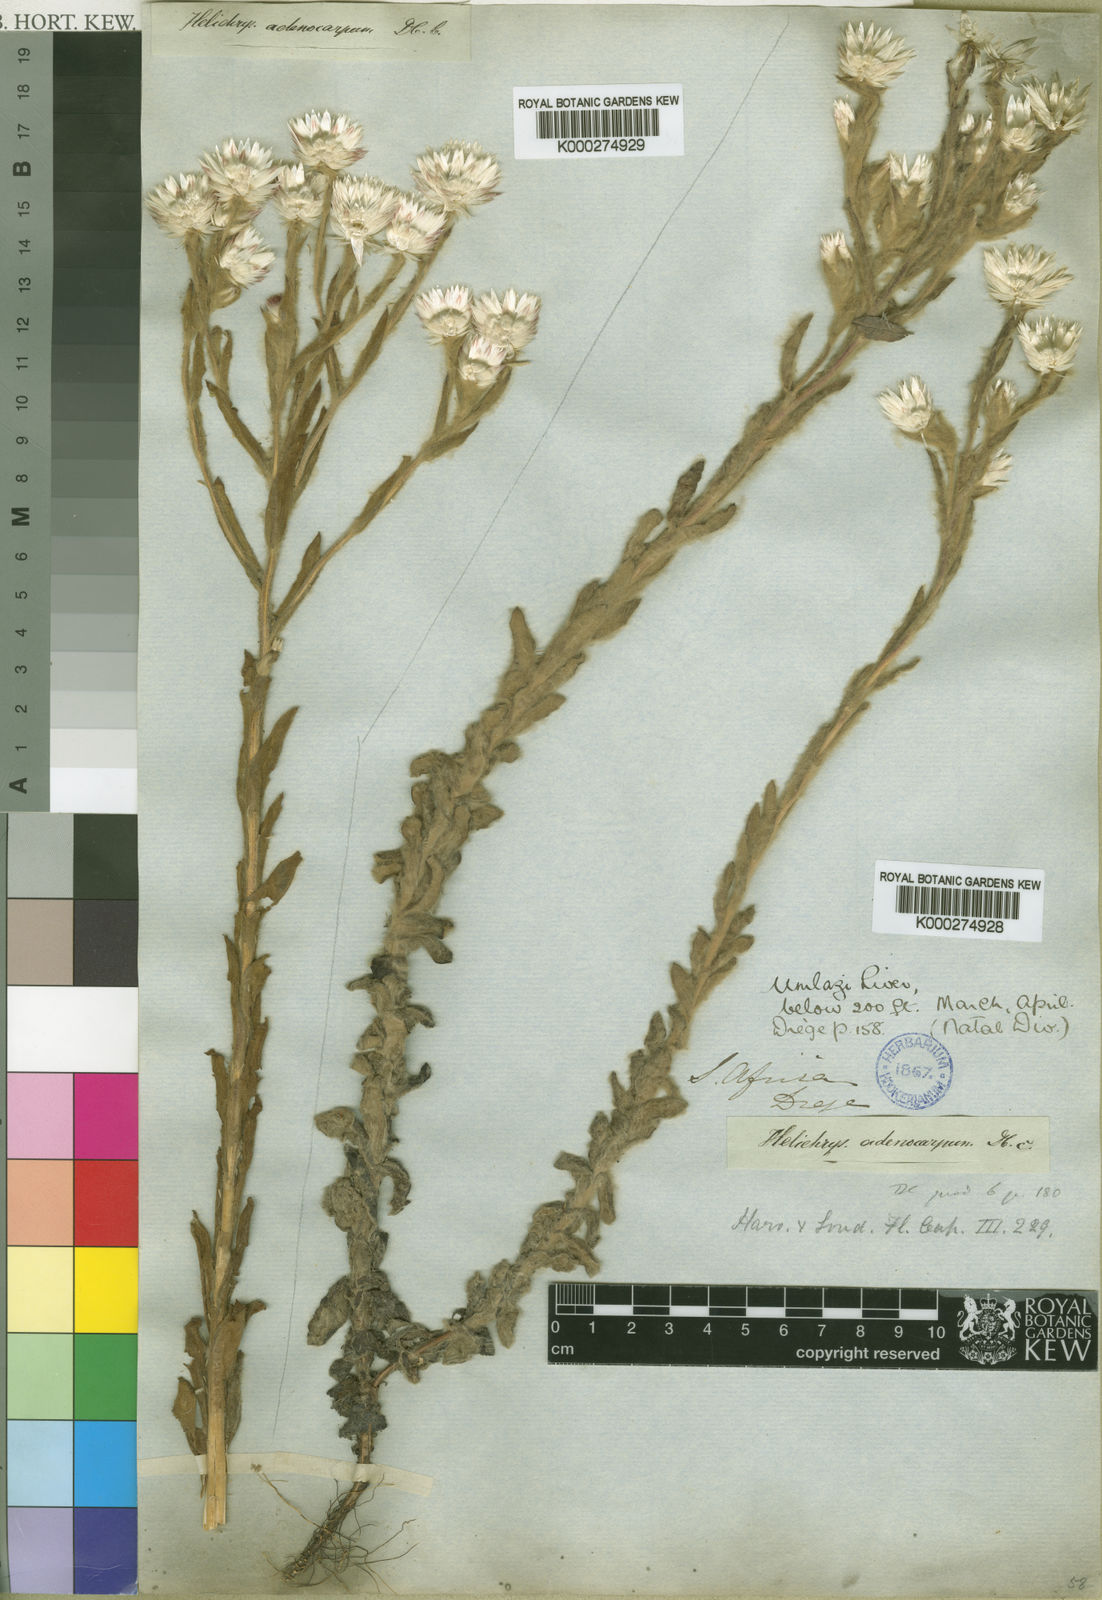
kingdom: Plantae
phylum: Tracheophyta
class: Magnoliopsida
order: Asterales
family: Asteraceae
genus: Helichrysum
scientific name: Helichrysum adenocarpum
